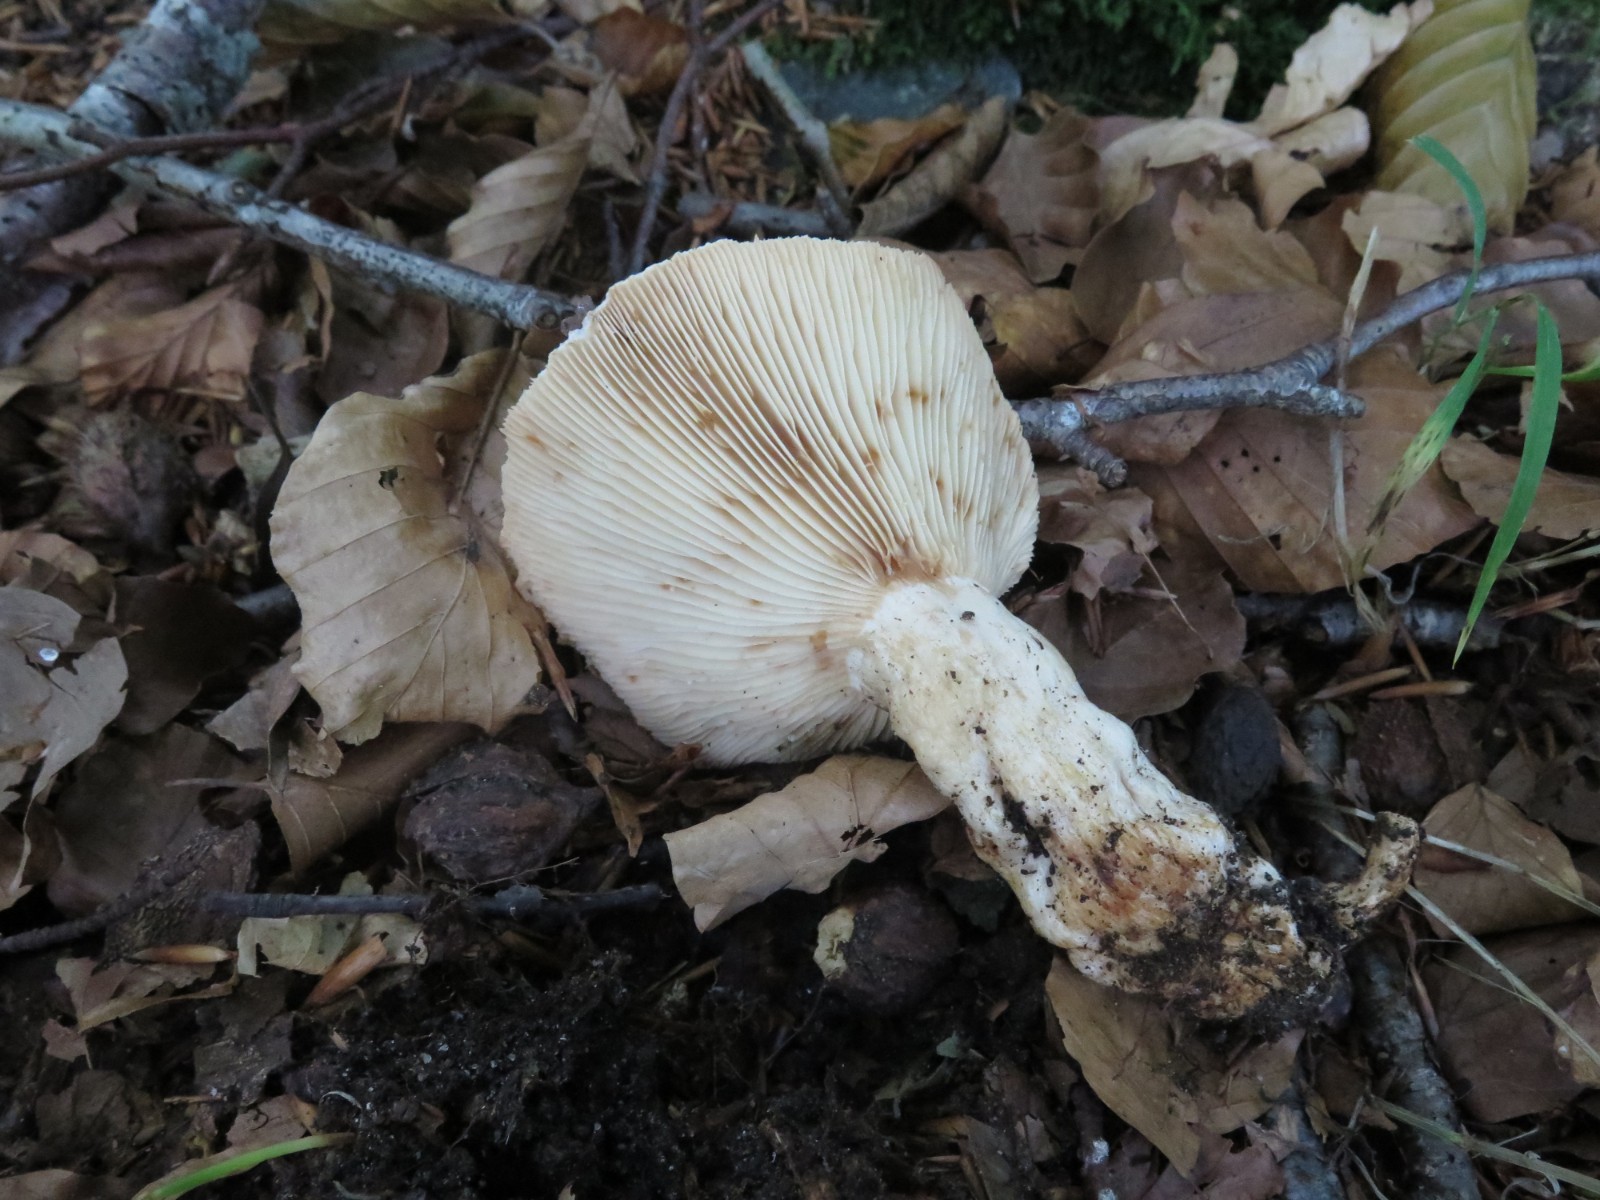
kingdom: Fungi
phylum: Basidiomycota
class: Agaricomycetes
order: Russulales
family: Russulaceae
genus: Russula
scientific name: Russula grata
